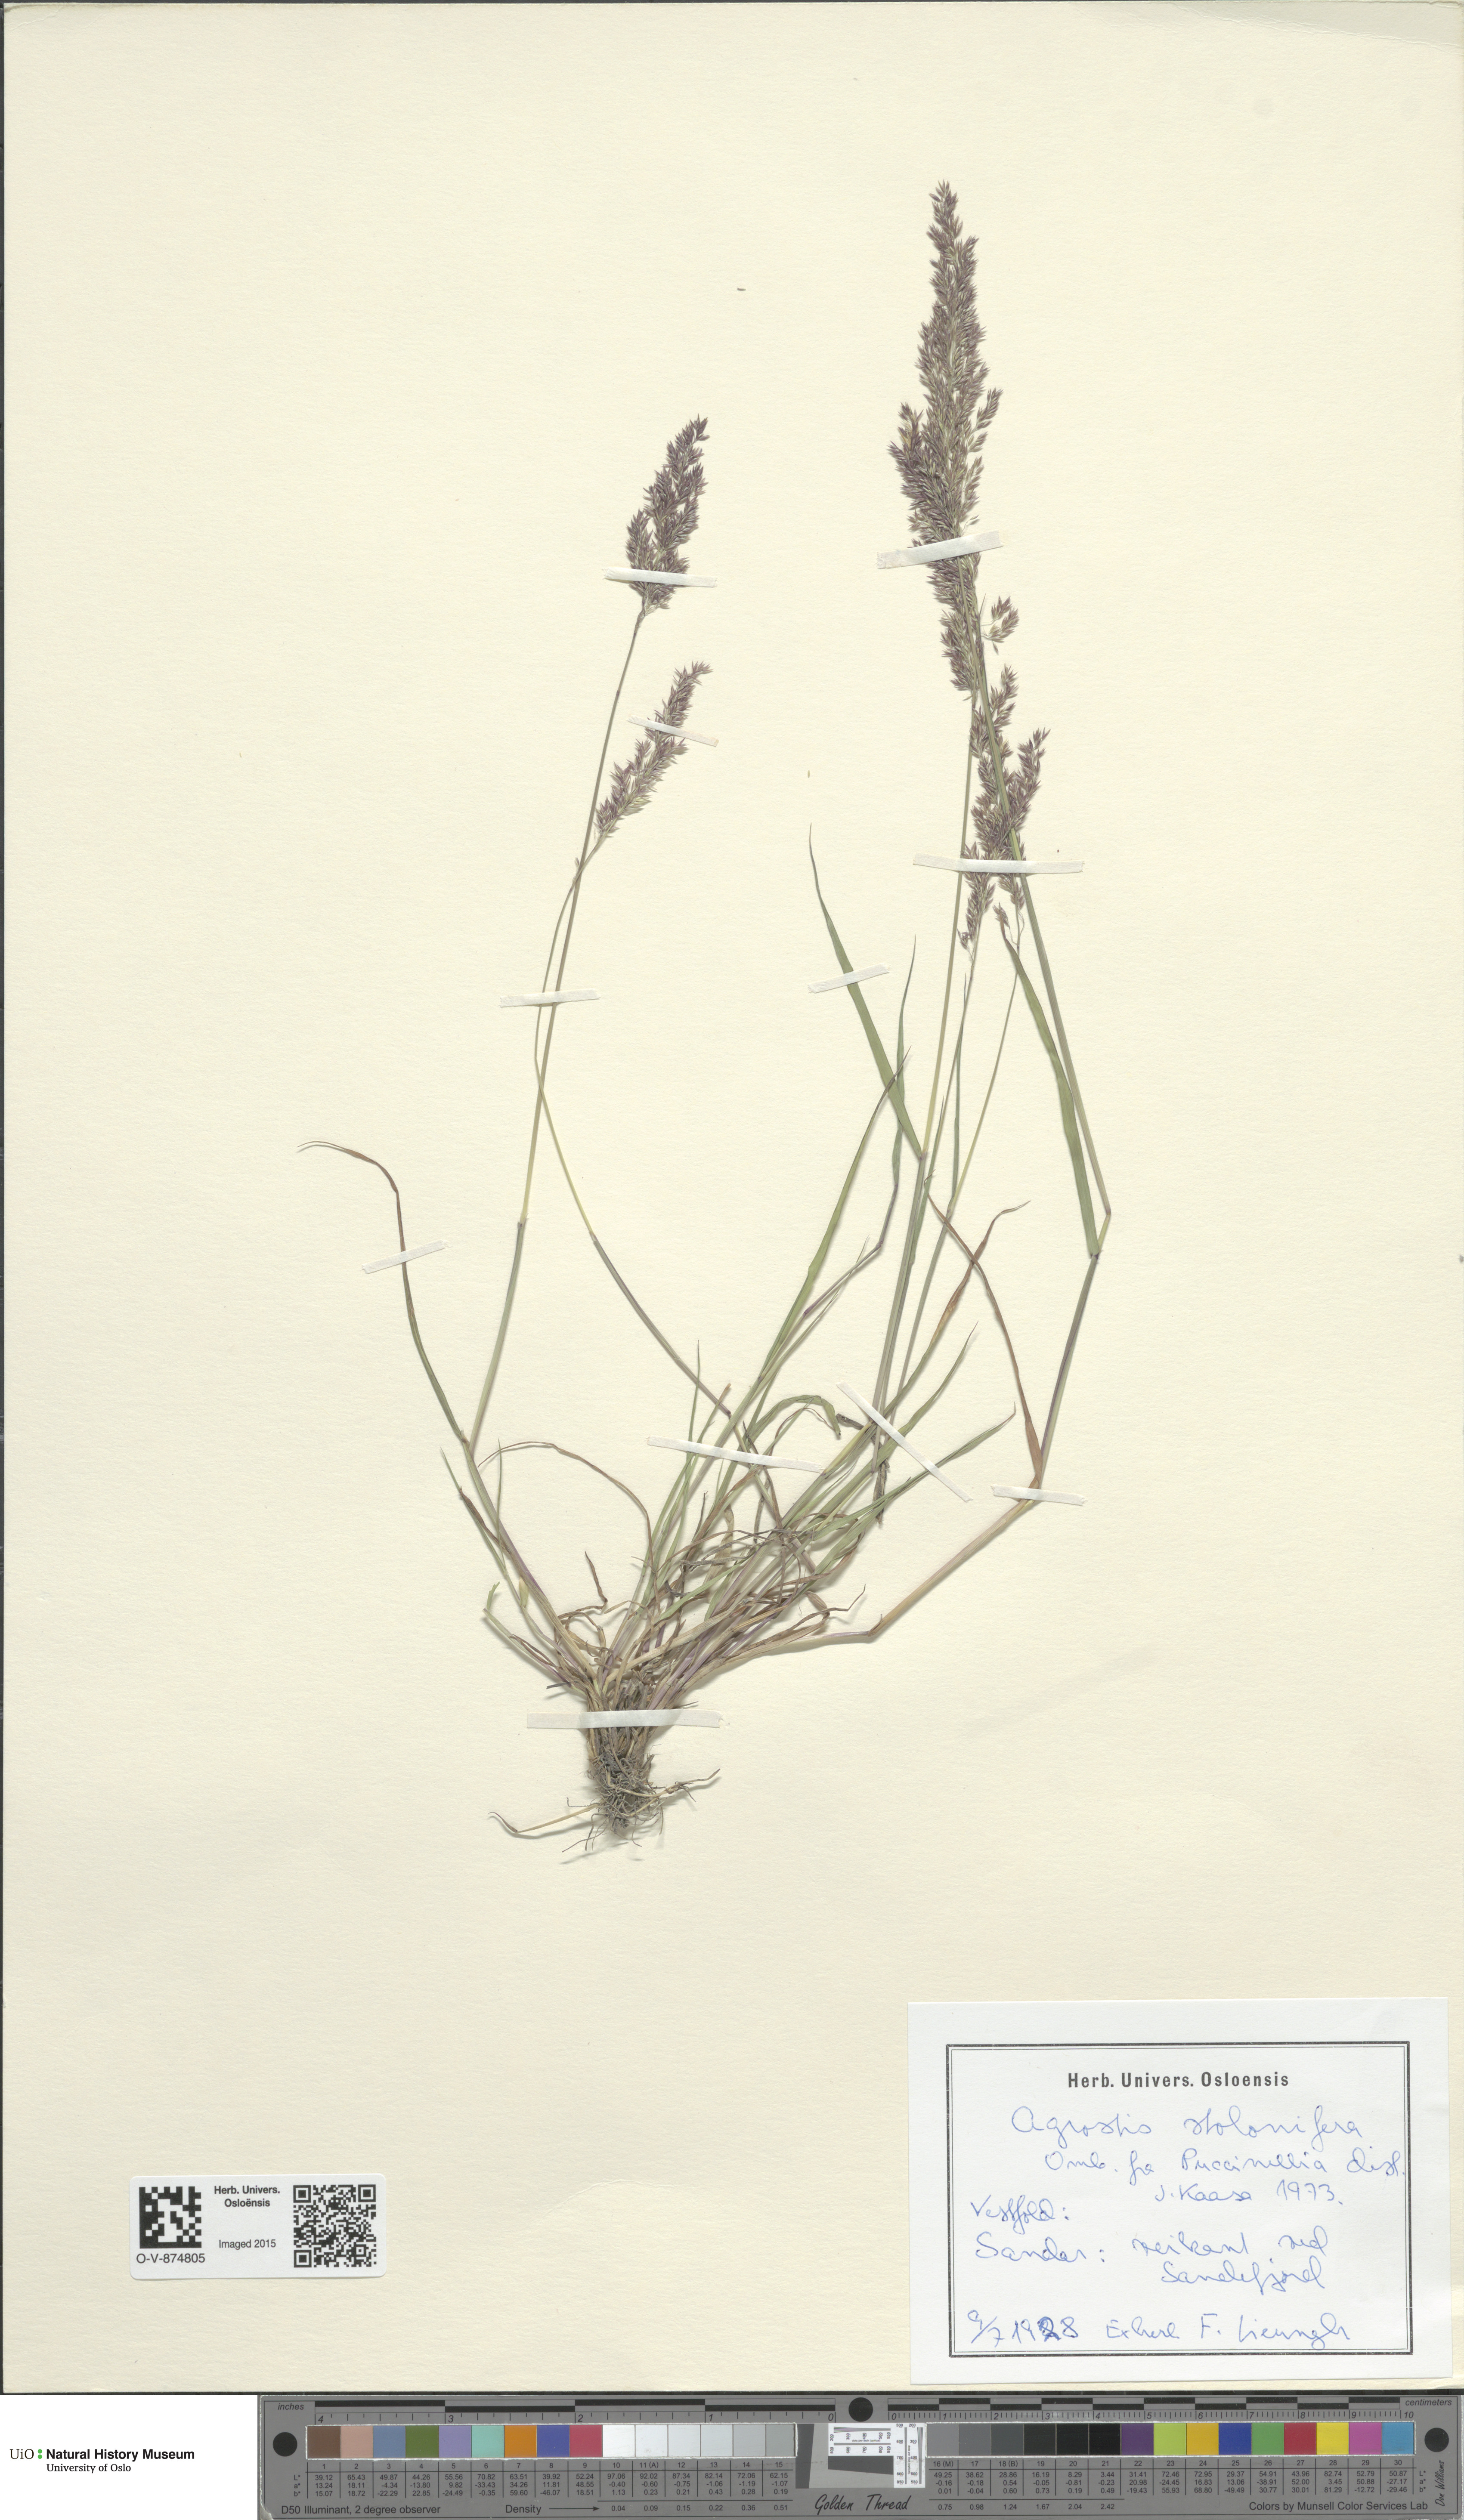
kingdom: Plantae
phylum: Tracheophyta
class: Liliopsida
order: Poales
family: Poaceae
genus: Agrostis
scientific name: Agrostis stolonifera
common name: Creeping bentgrass
